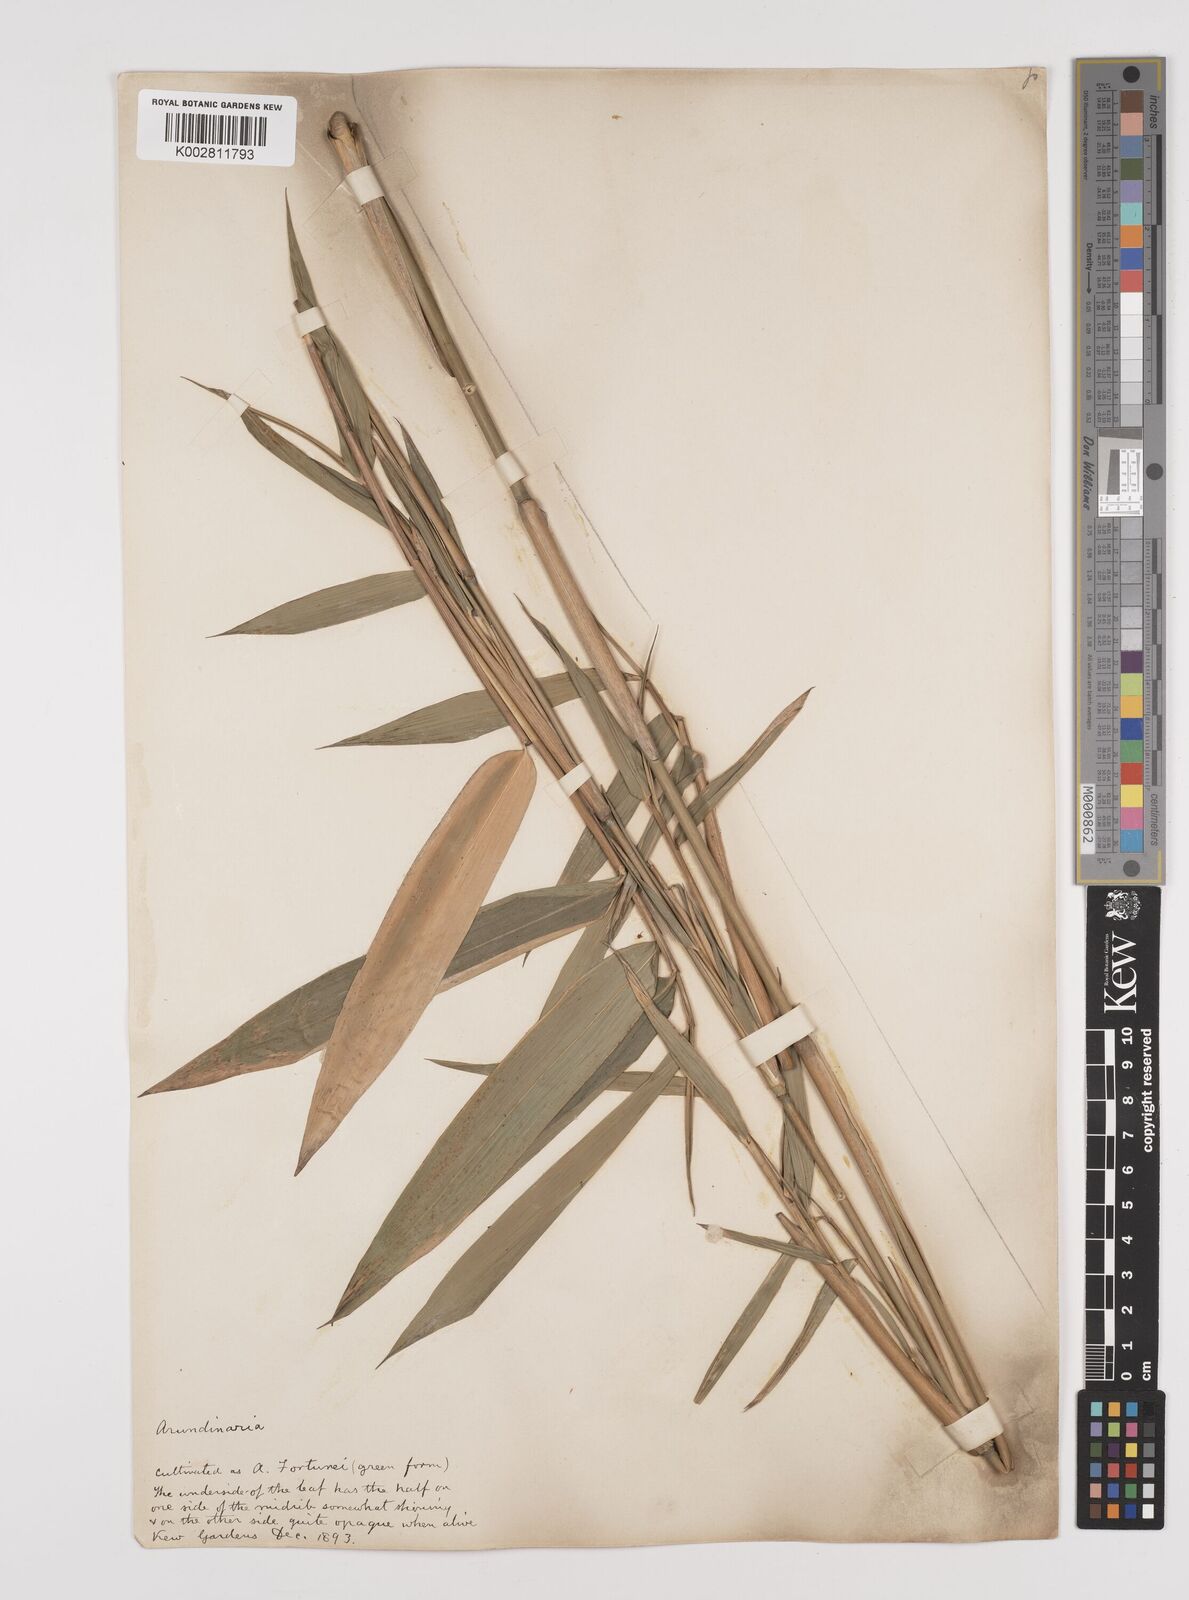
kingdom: Plantae
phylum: Tracheophyta
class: Liliopsida
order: Poales
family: Poaceae
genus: Pseudosasa
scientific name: Pseudosasa humilis
